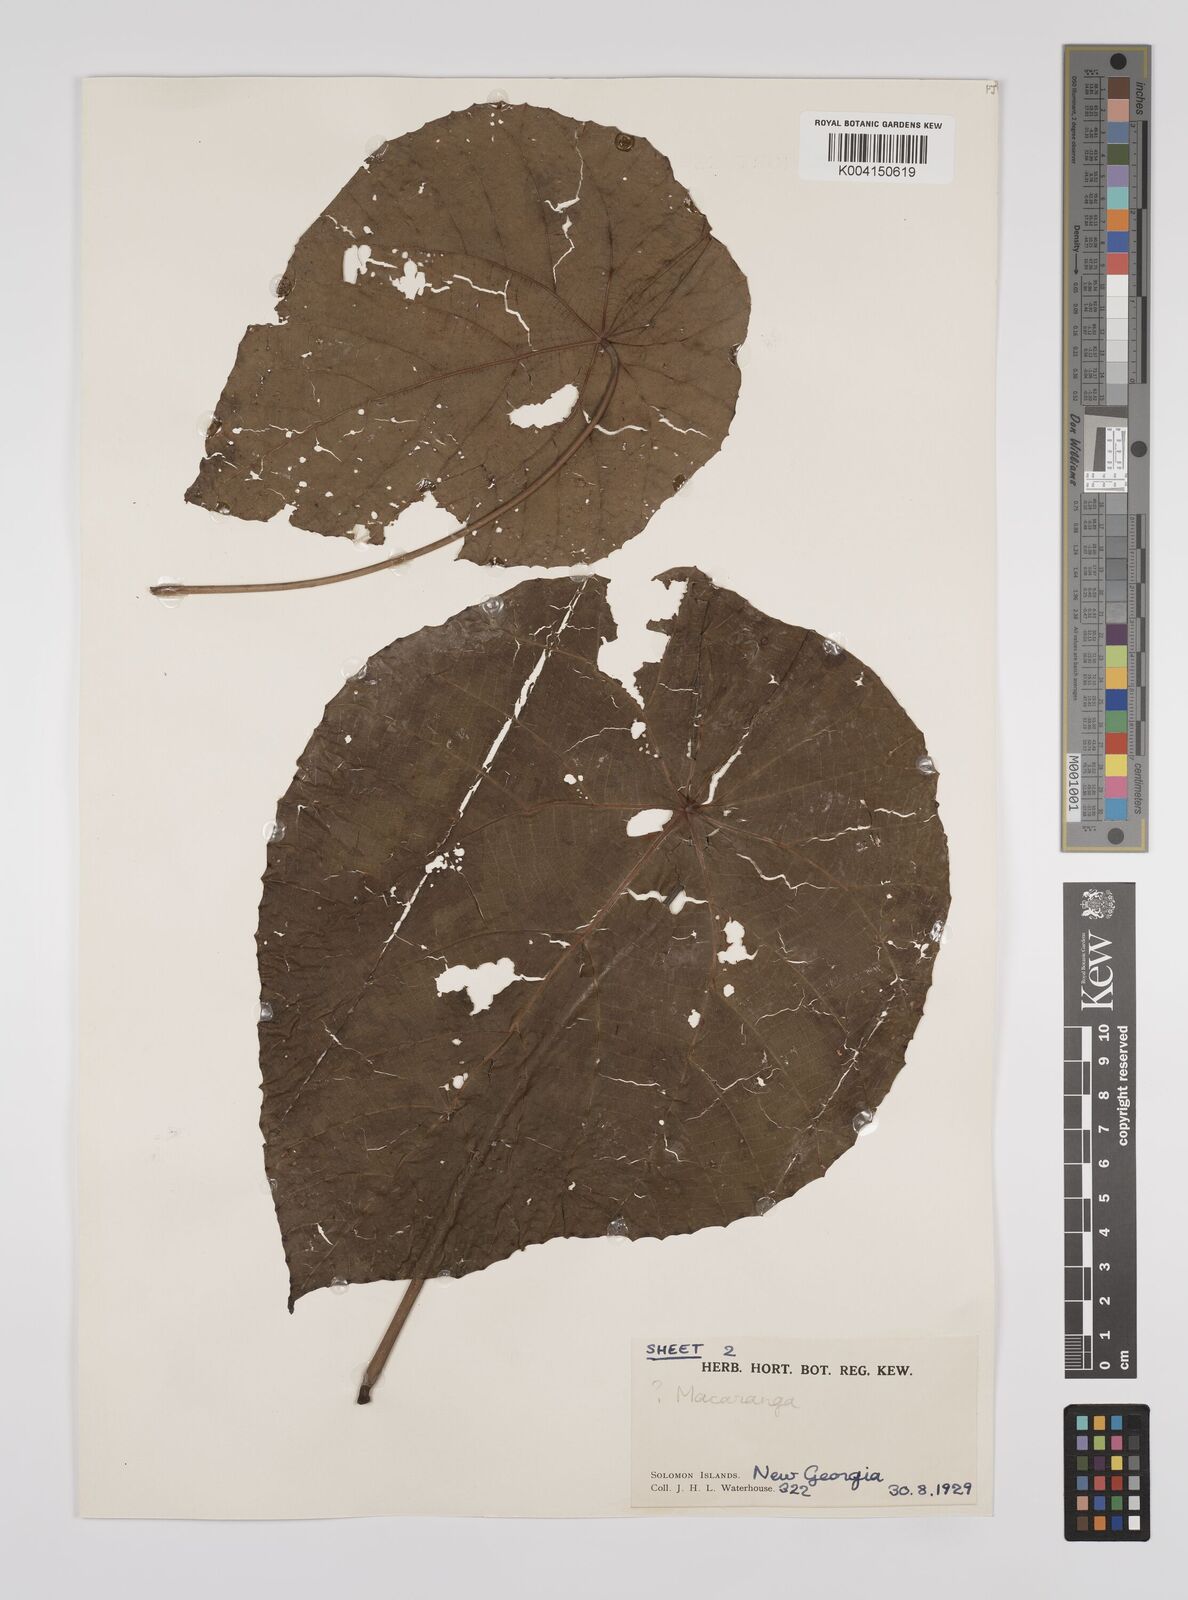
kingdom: Plantae
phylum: Tracheophyta
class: Magnoliopsida
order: Malpighiales
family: Euphorbiaceae
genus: Macaranga
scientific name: Macaranga tanarius
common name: Parasol leaf tree
